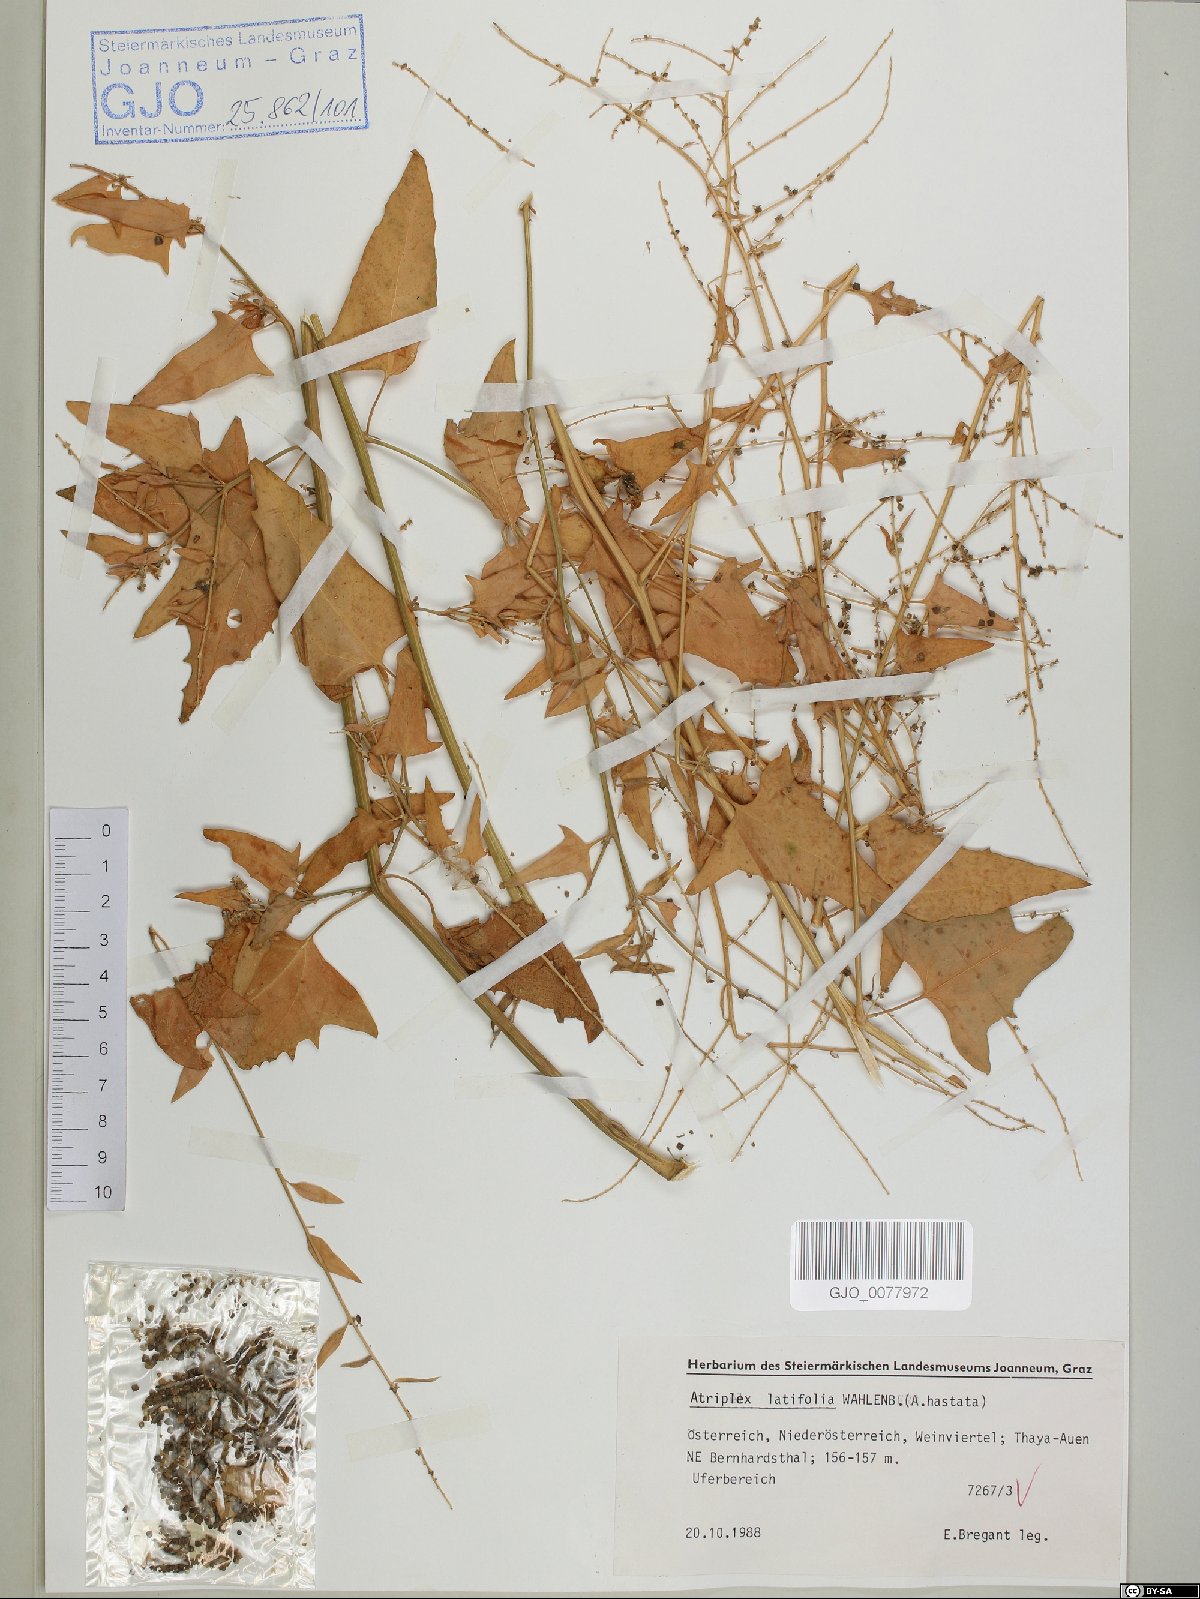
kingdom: Plantae
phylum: Tracheophyta
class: Magnoliopsida
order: Caryophyllales
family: Amaranthaceae
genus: Atriplex
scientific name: Atriplex prostrata
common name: Spear-leaved orache
